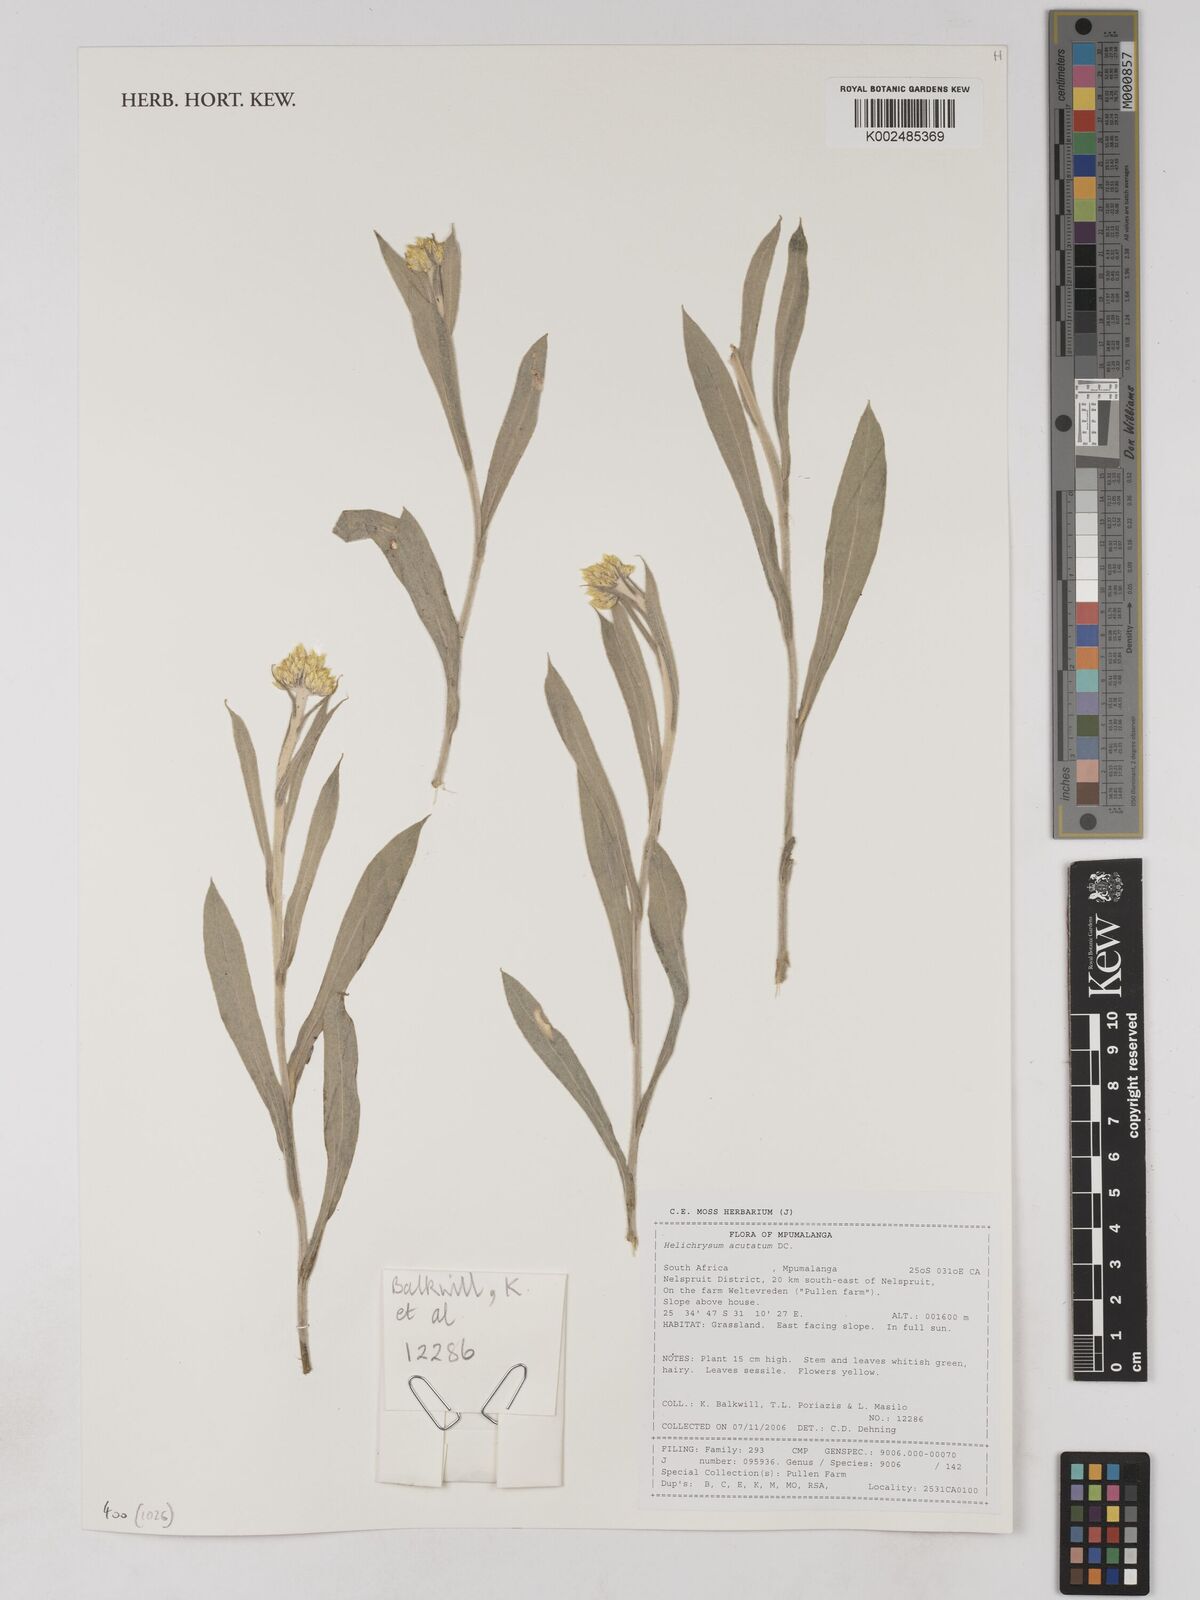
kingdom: Plantae
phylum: Tracheophyta
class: Magnoliopsida
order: Asterales
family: Asteraceae
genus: Helichrysum
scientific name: Helichrysum acutatum
